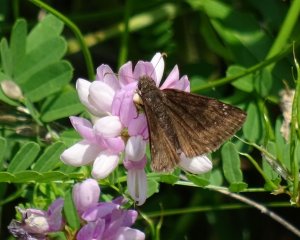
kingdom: Animalia
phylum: Arthropoda
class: Insecta
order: Lepidoptera
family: Hesperiidae
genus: Gesta
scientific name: Gesta
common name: Wild Indigo Duskywing
